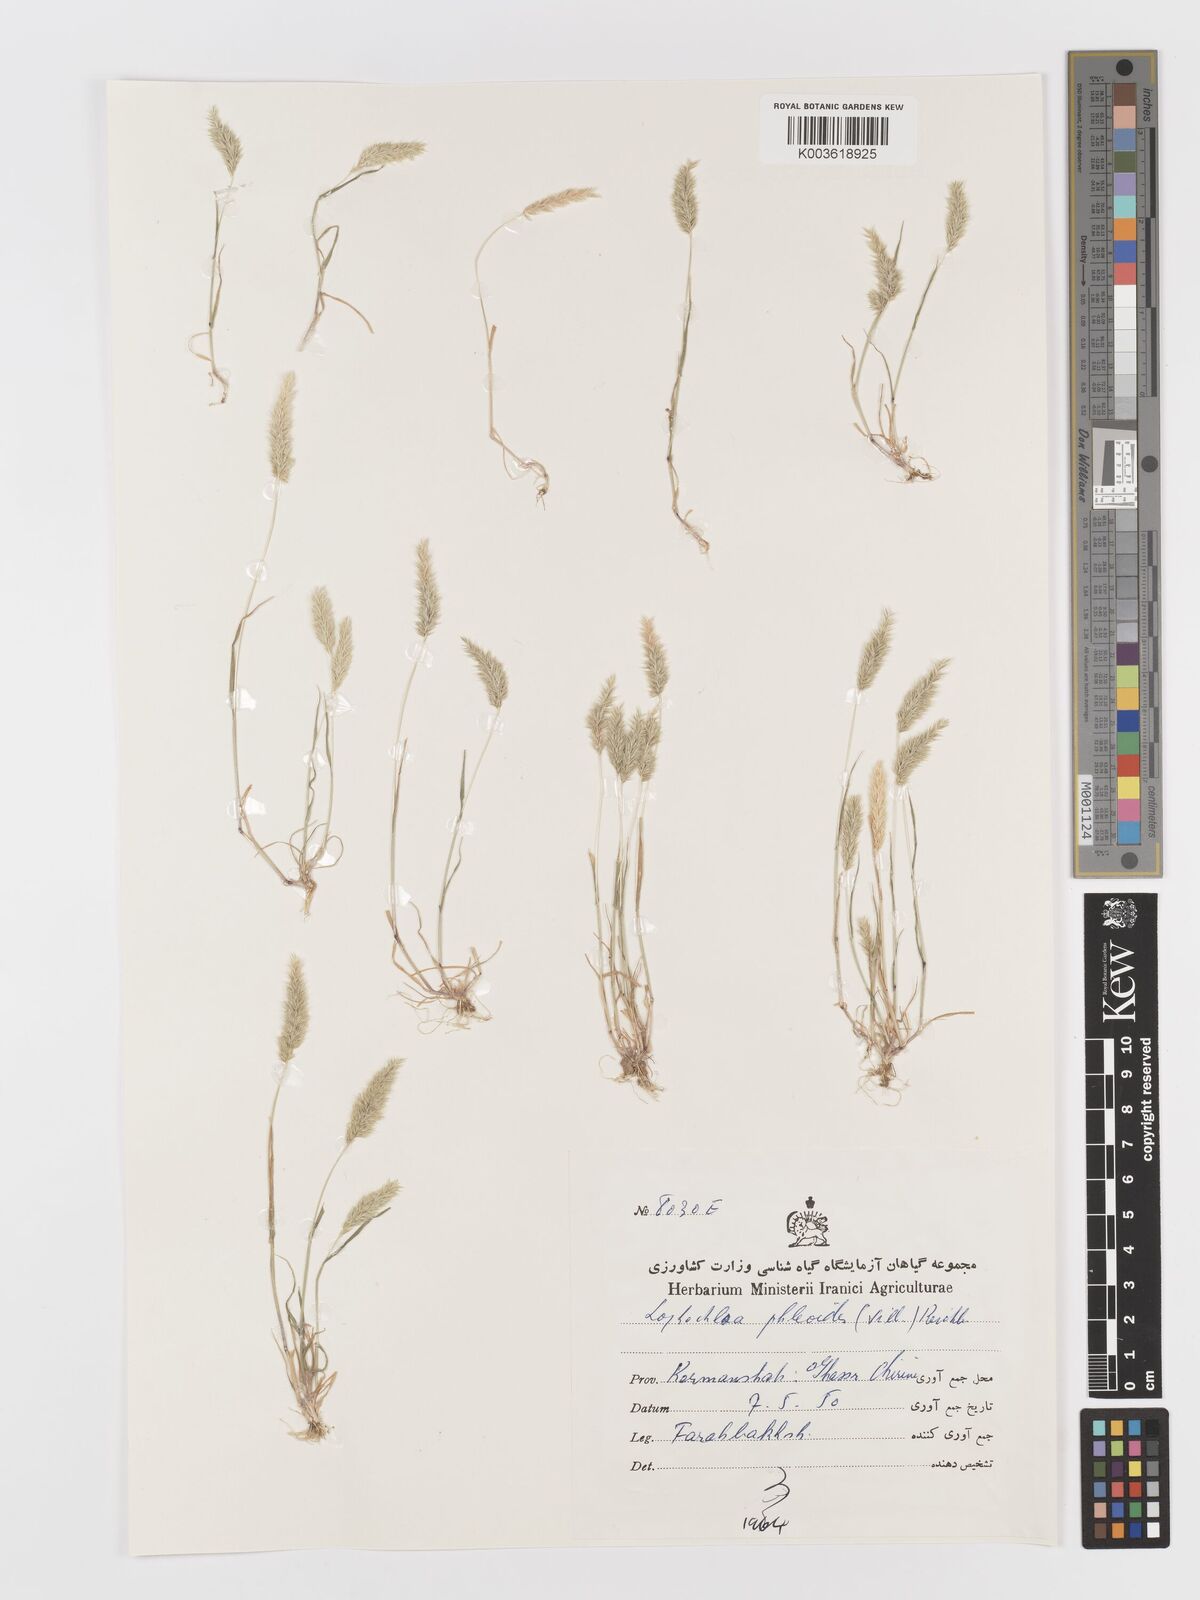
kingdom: Plantae
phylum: Tracheophyta
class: Liliopsida
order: Poales
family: Poaceae
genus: Rostraria
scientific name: Rostraria cristata
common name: Mediterranean hair-grass
